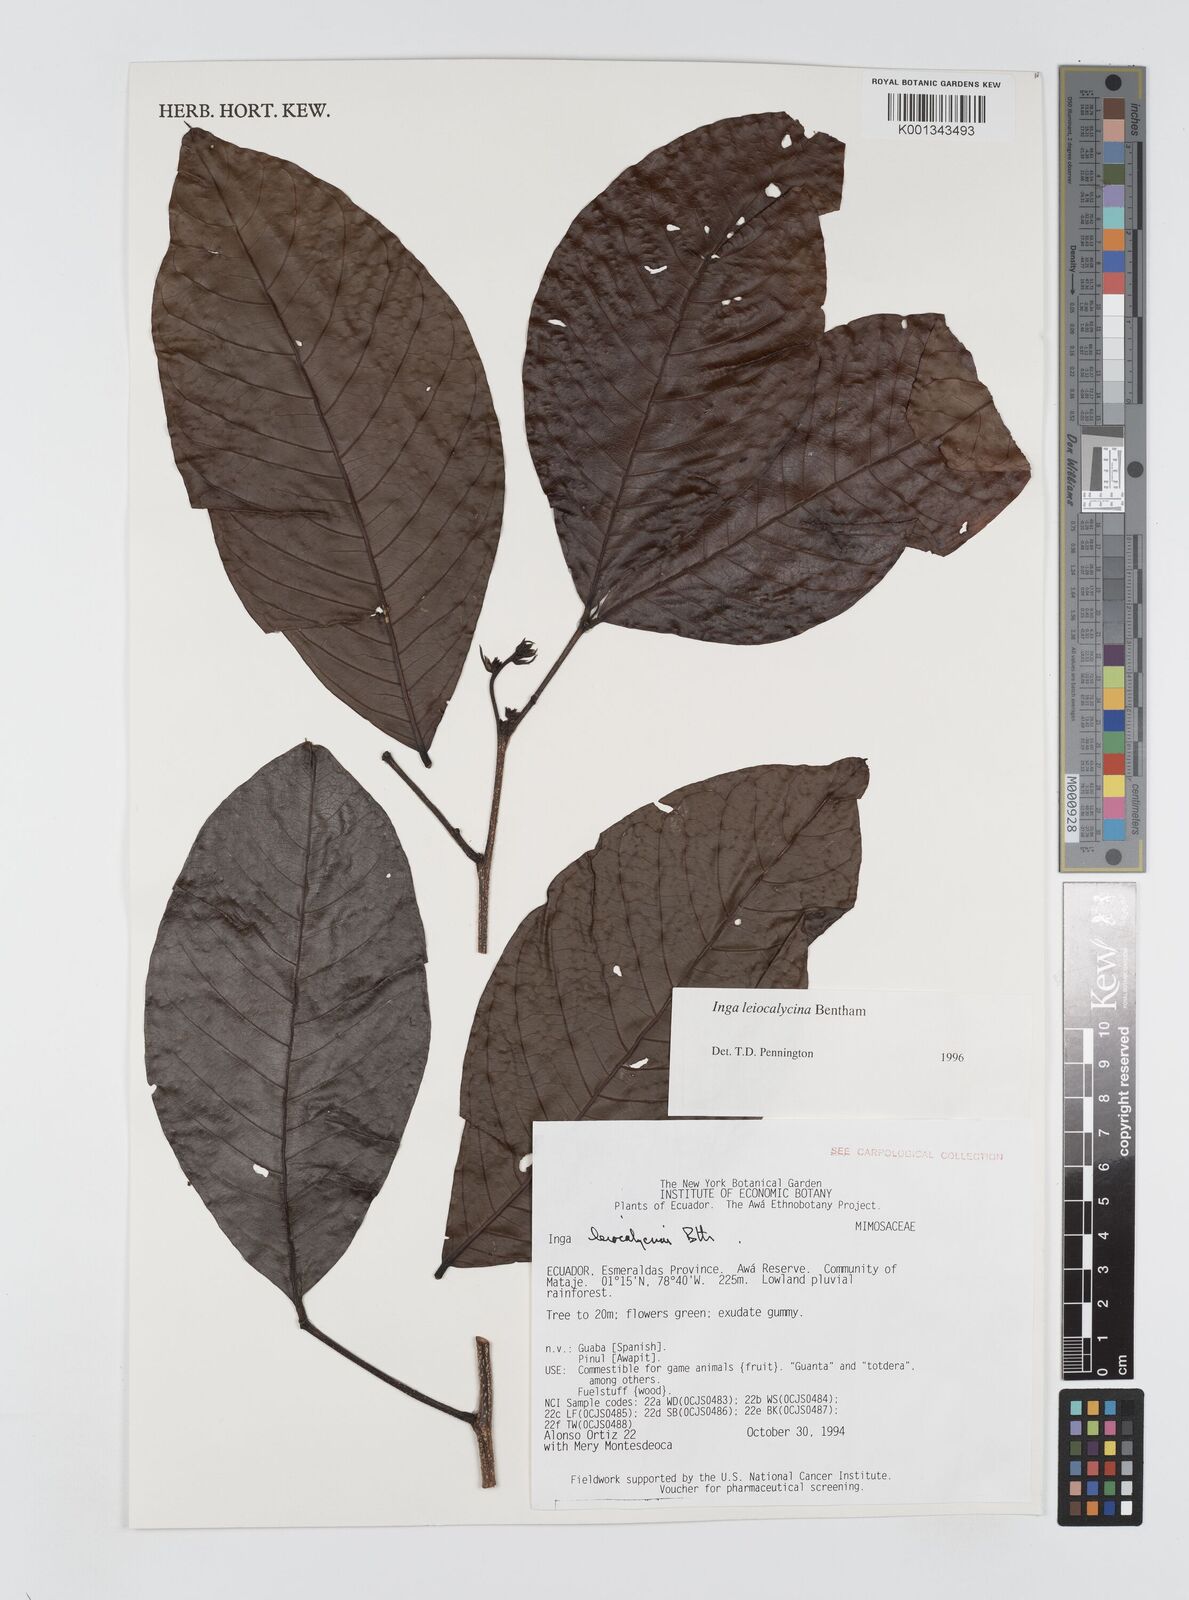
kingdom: Plantae
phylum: Tracheophyta
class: Magnoliopsida
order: Fabales
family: Fabaceae
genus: Inga
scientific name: Inga laevigata
